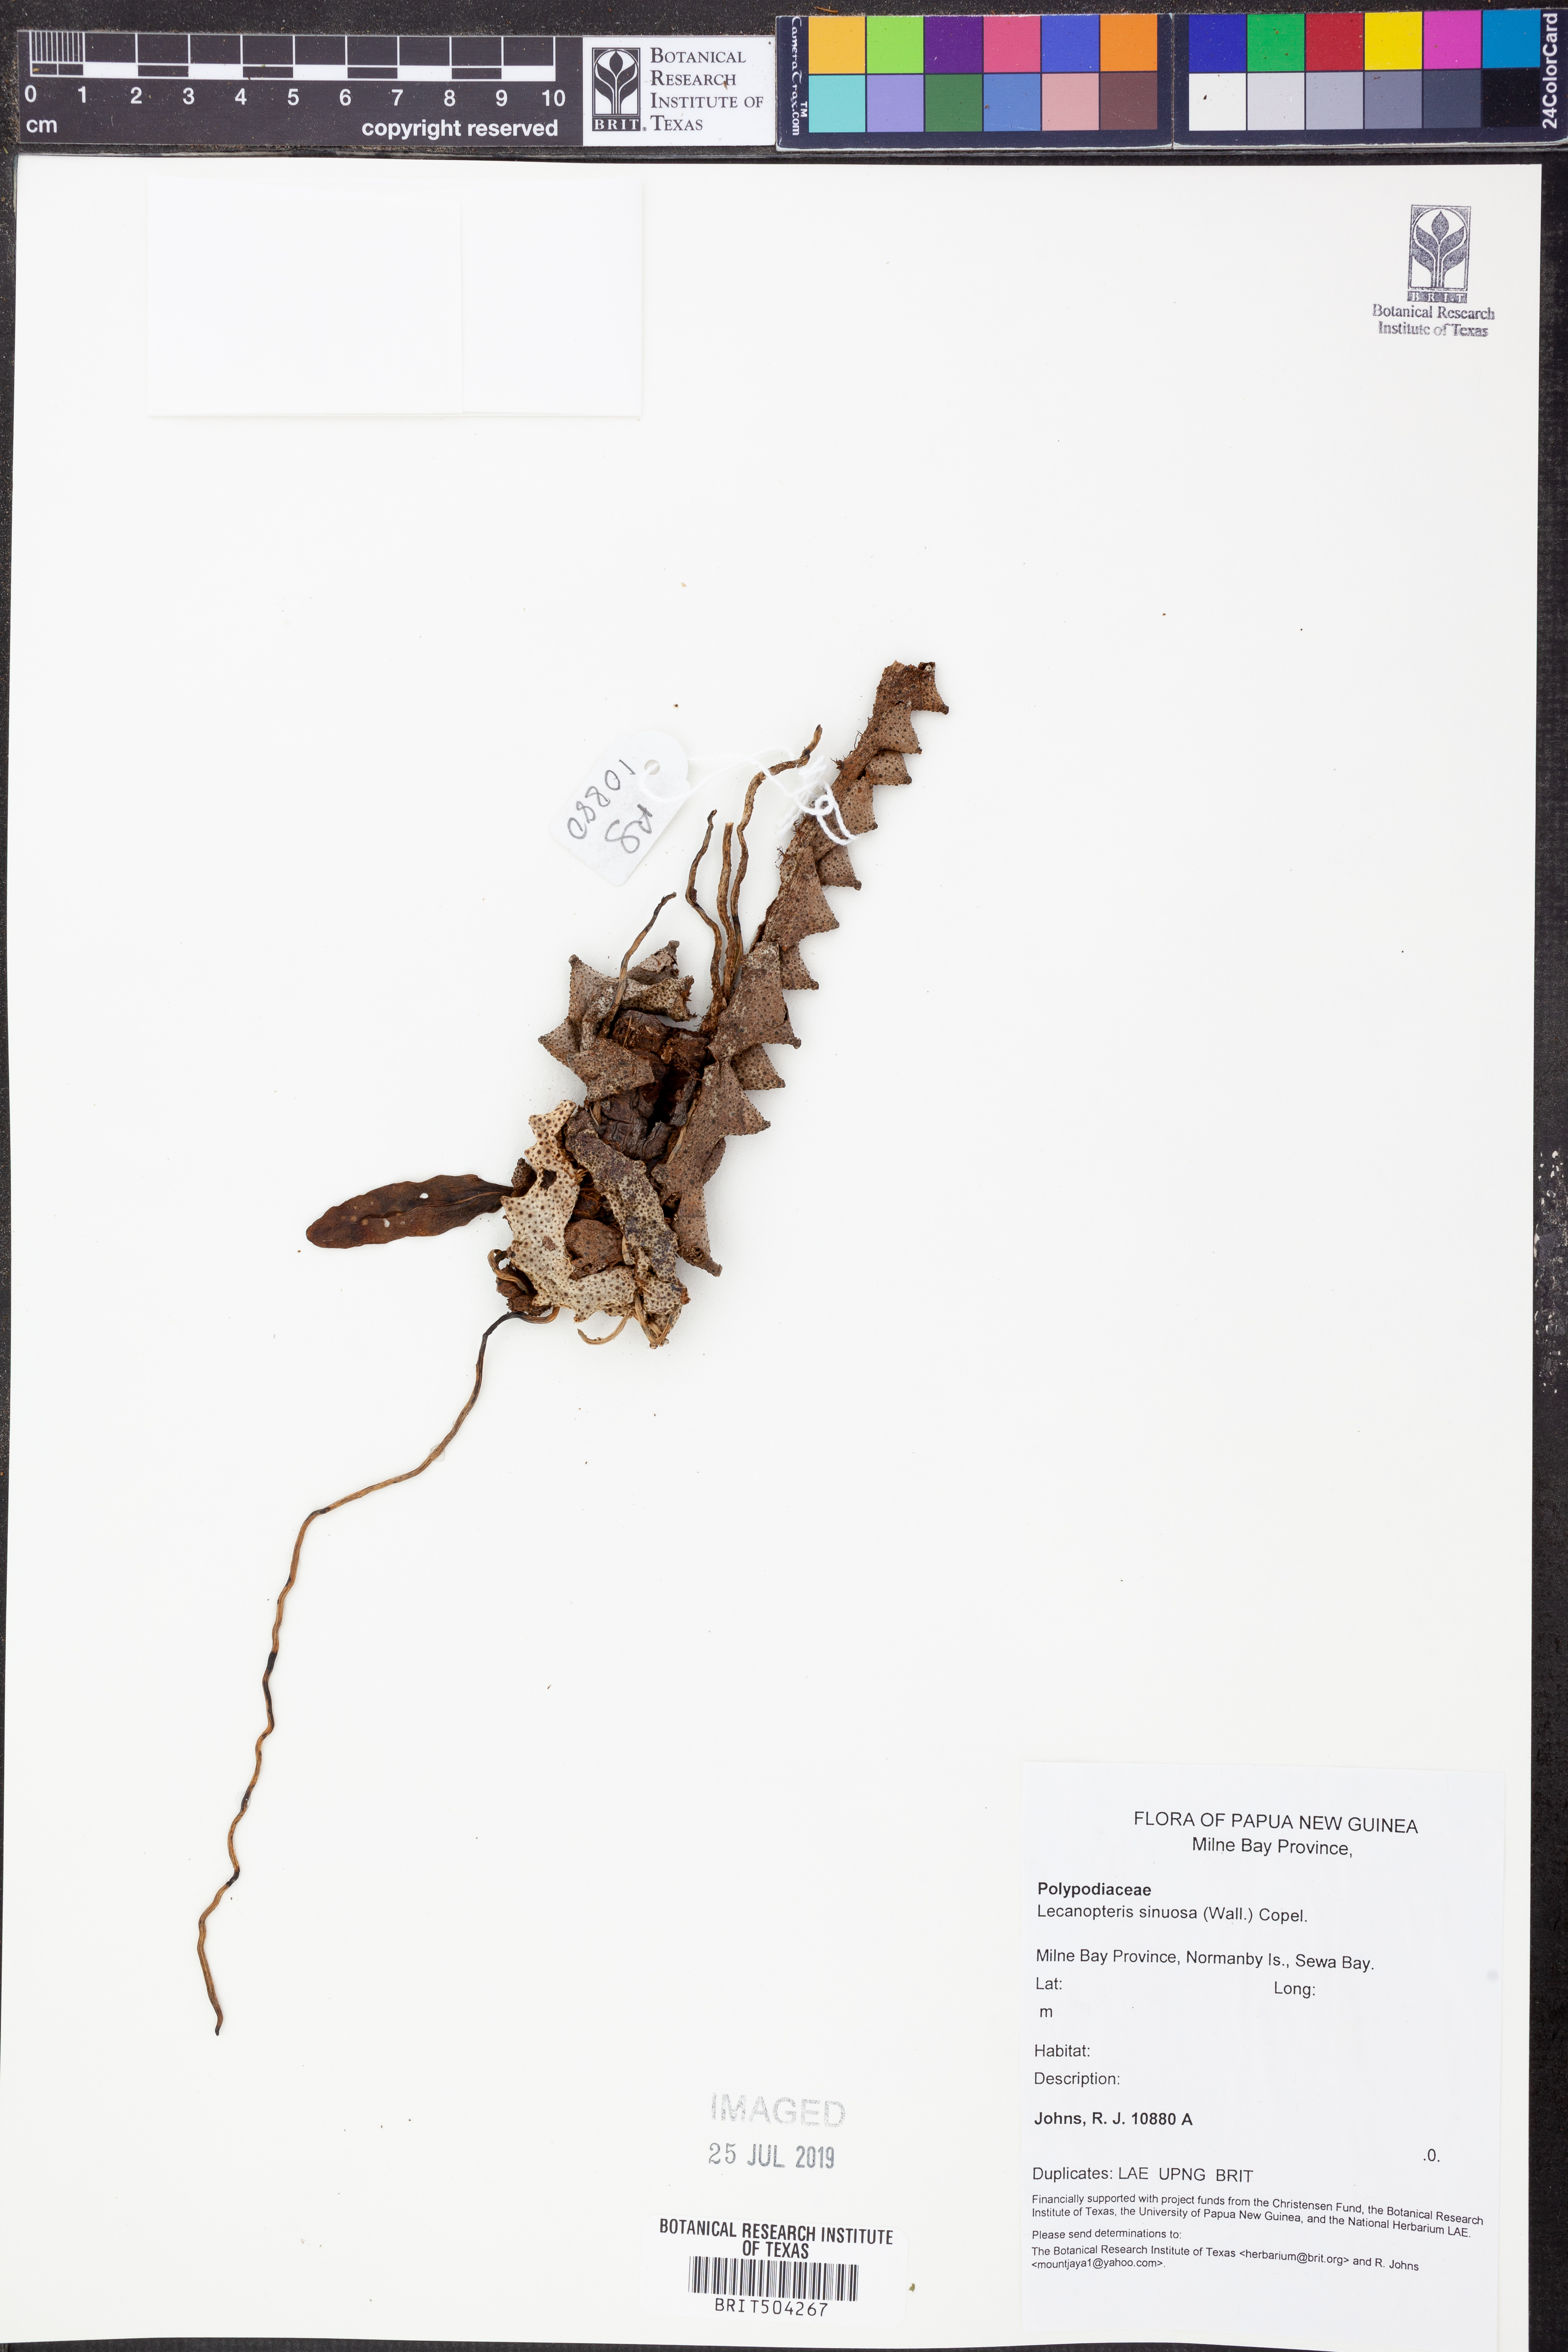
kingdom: Plantae
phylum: Tracheophyta
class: Polypodiopsida
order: Polypodiales
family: Polypodiaceae
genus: Lecanopteris
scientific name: Lecanopteris sinuosa
